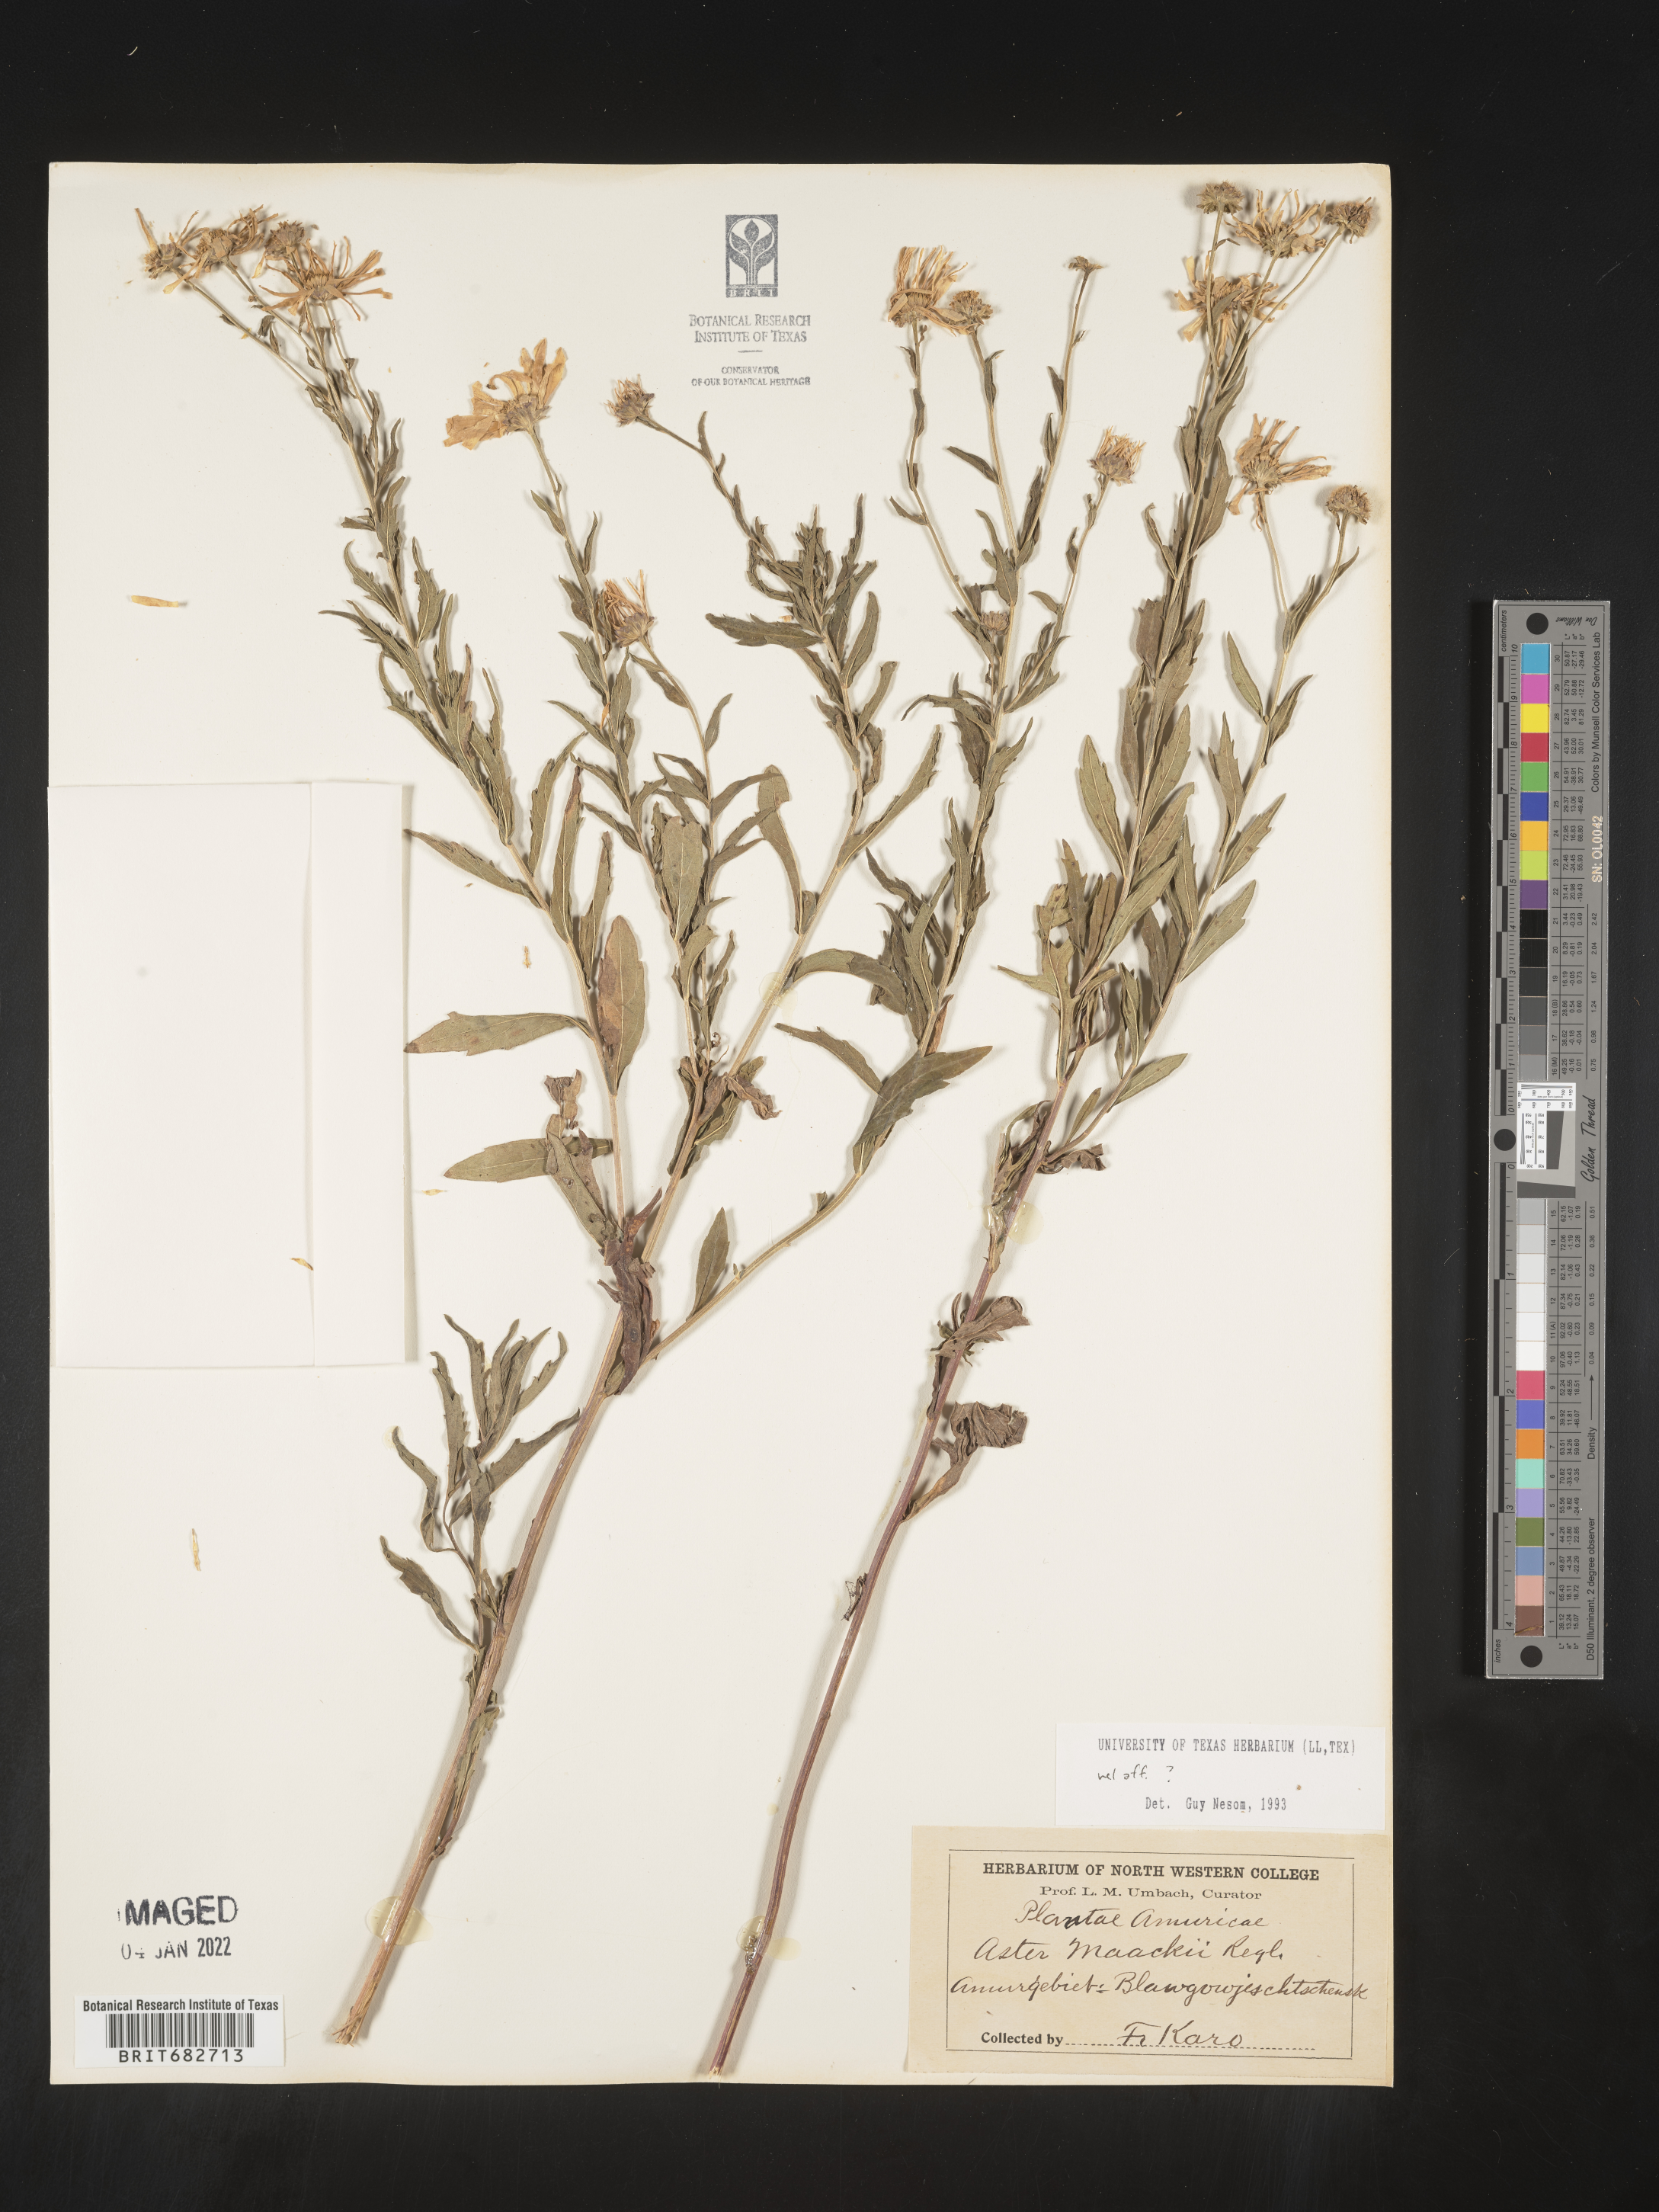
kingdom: Plantae
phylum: Tracheophyta
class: Magnoliopsida
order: Asterales
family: Asteraceae
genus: Aster
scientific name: Aster
